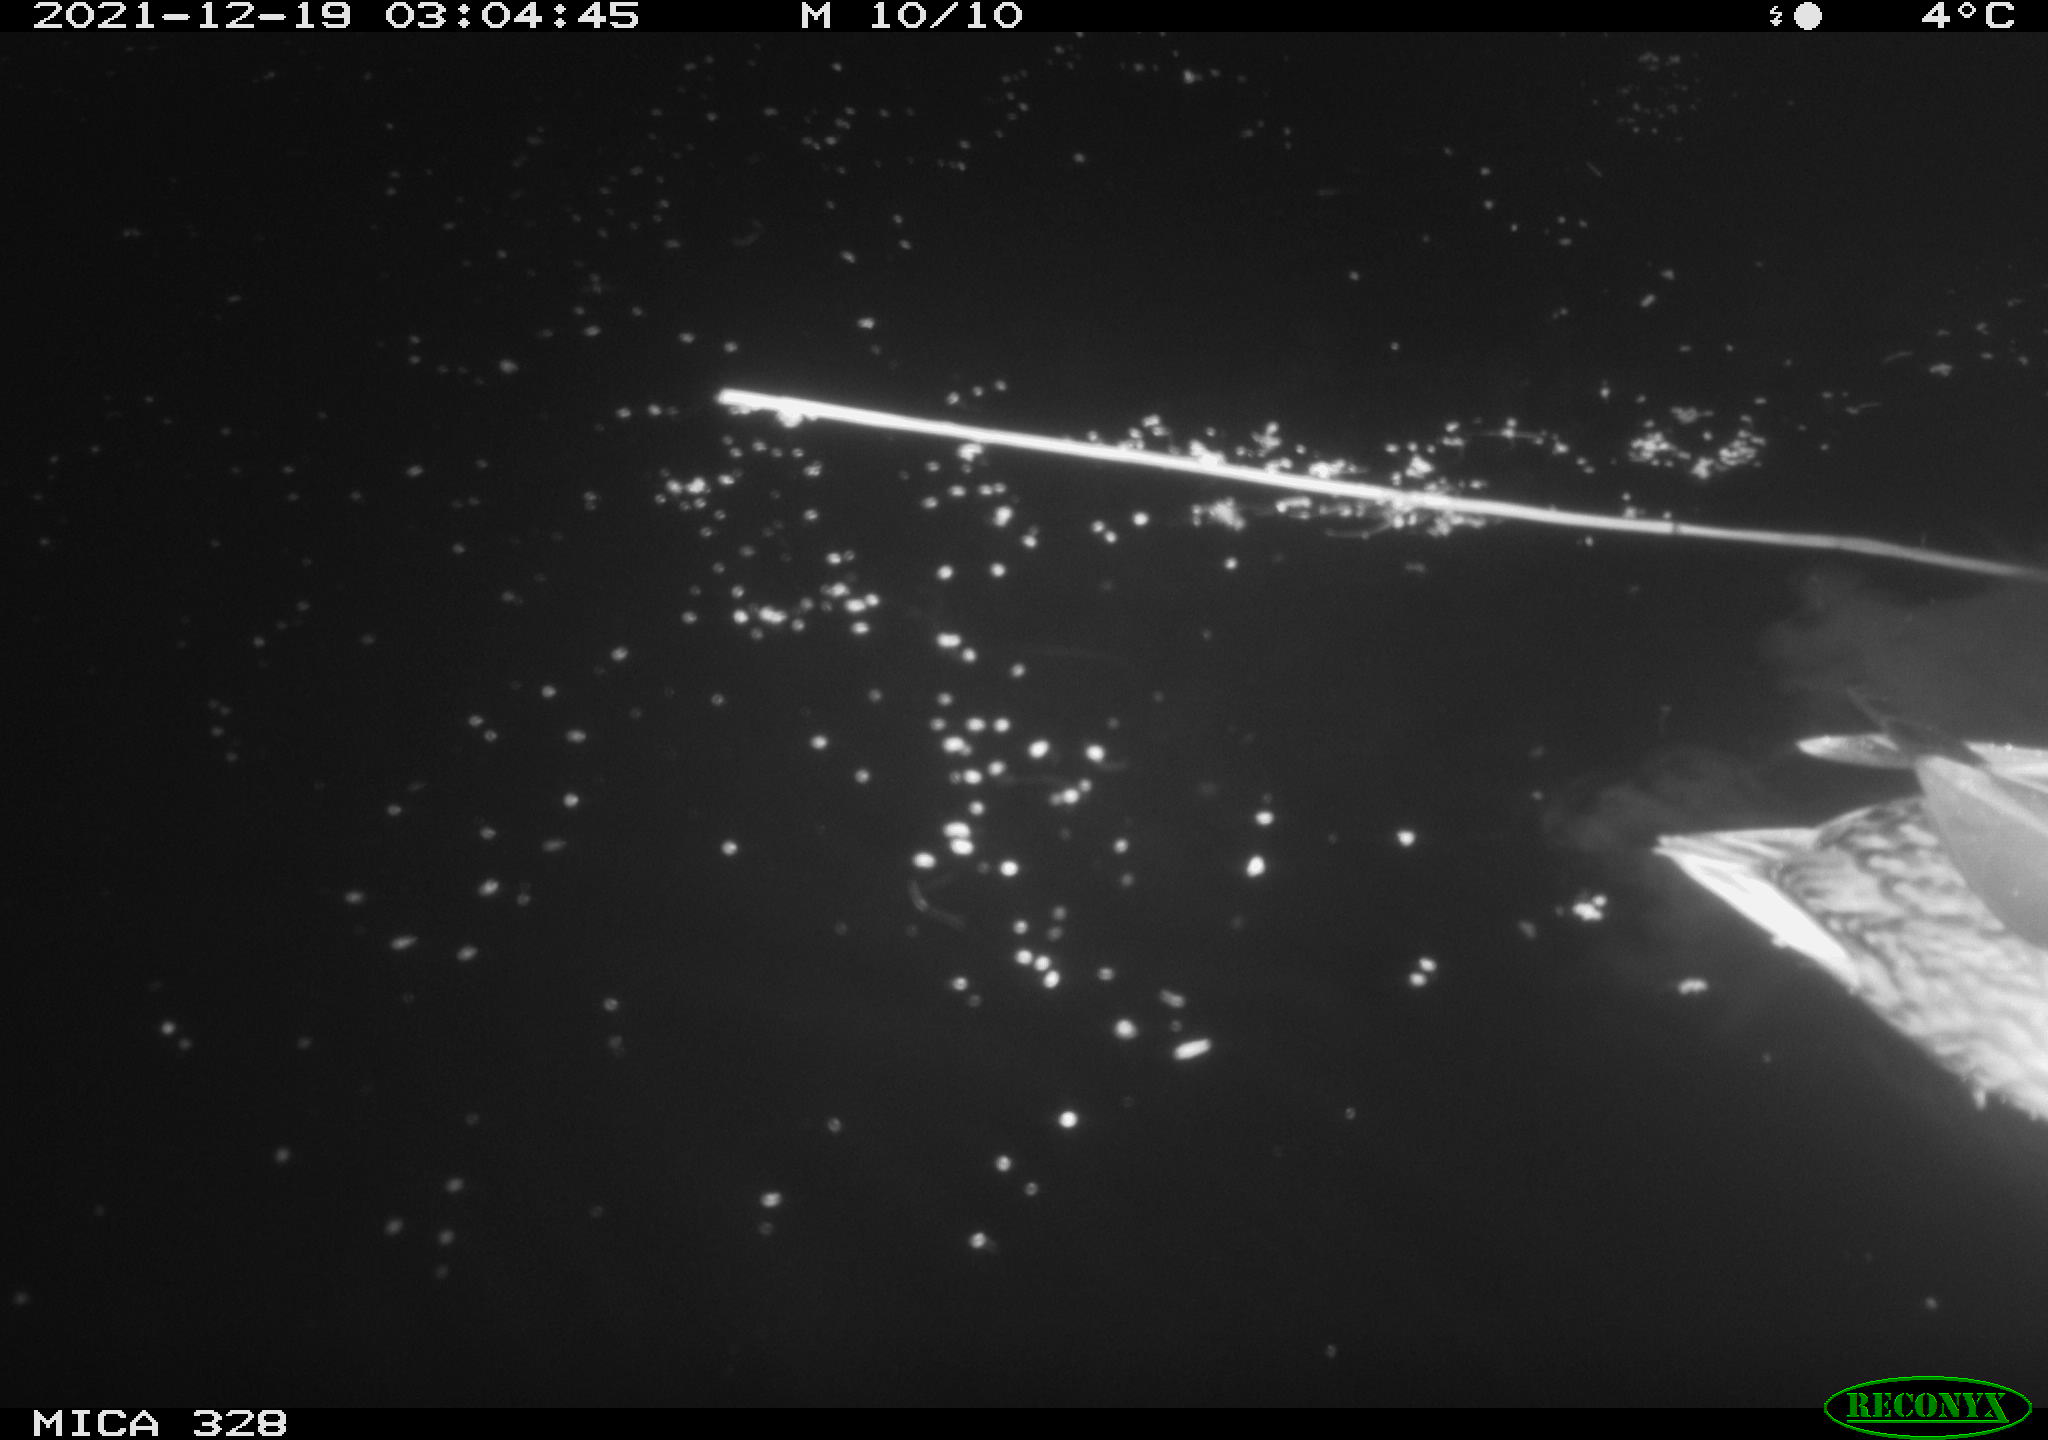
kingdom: Animalia
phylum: Chordata
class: Aves
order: Anseriformes
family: Anatidae
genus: Anas
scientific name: Anas platyrhynchos
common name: Mallard
